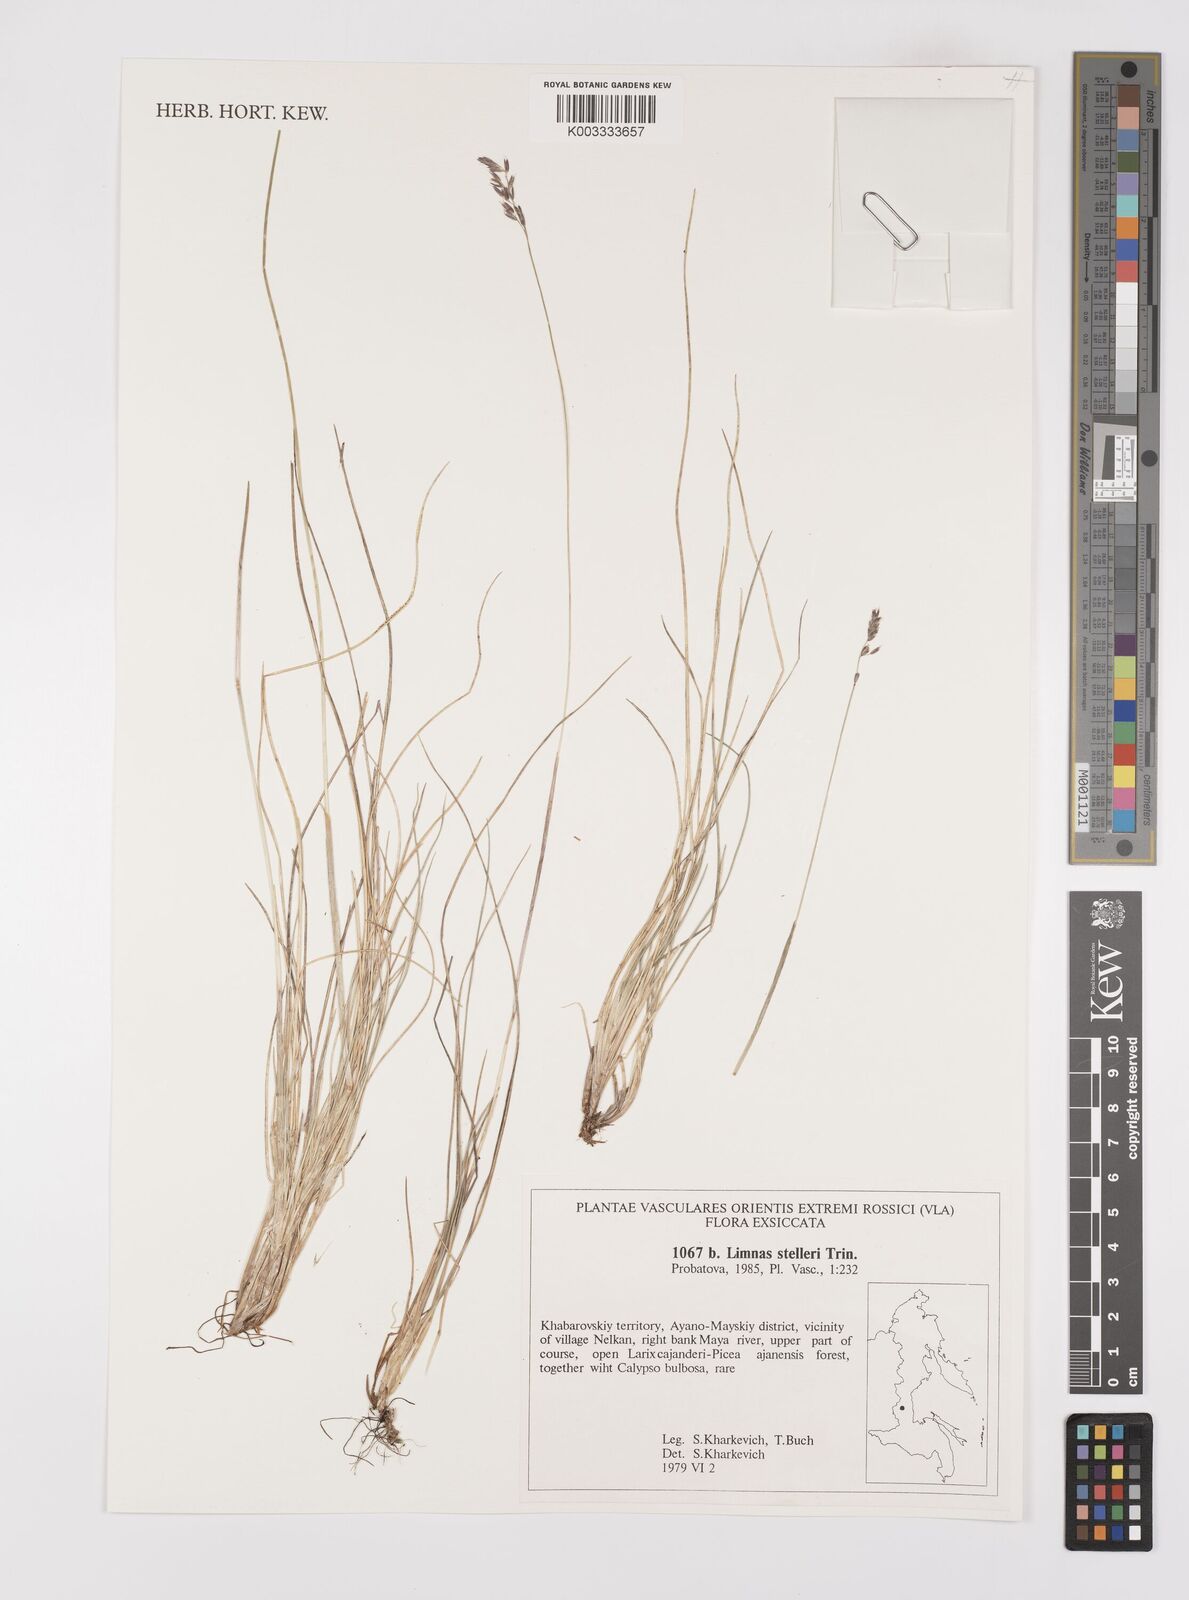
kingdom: Plantae
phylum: Tracheophyta
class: Liliopsida
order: Poales
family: Poaceae
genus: Limnas
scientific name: Limnas stelleri
